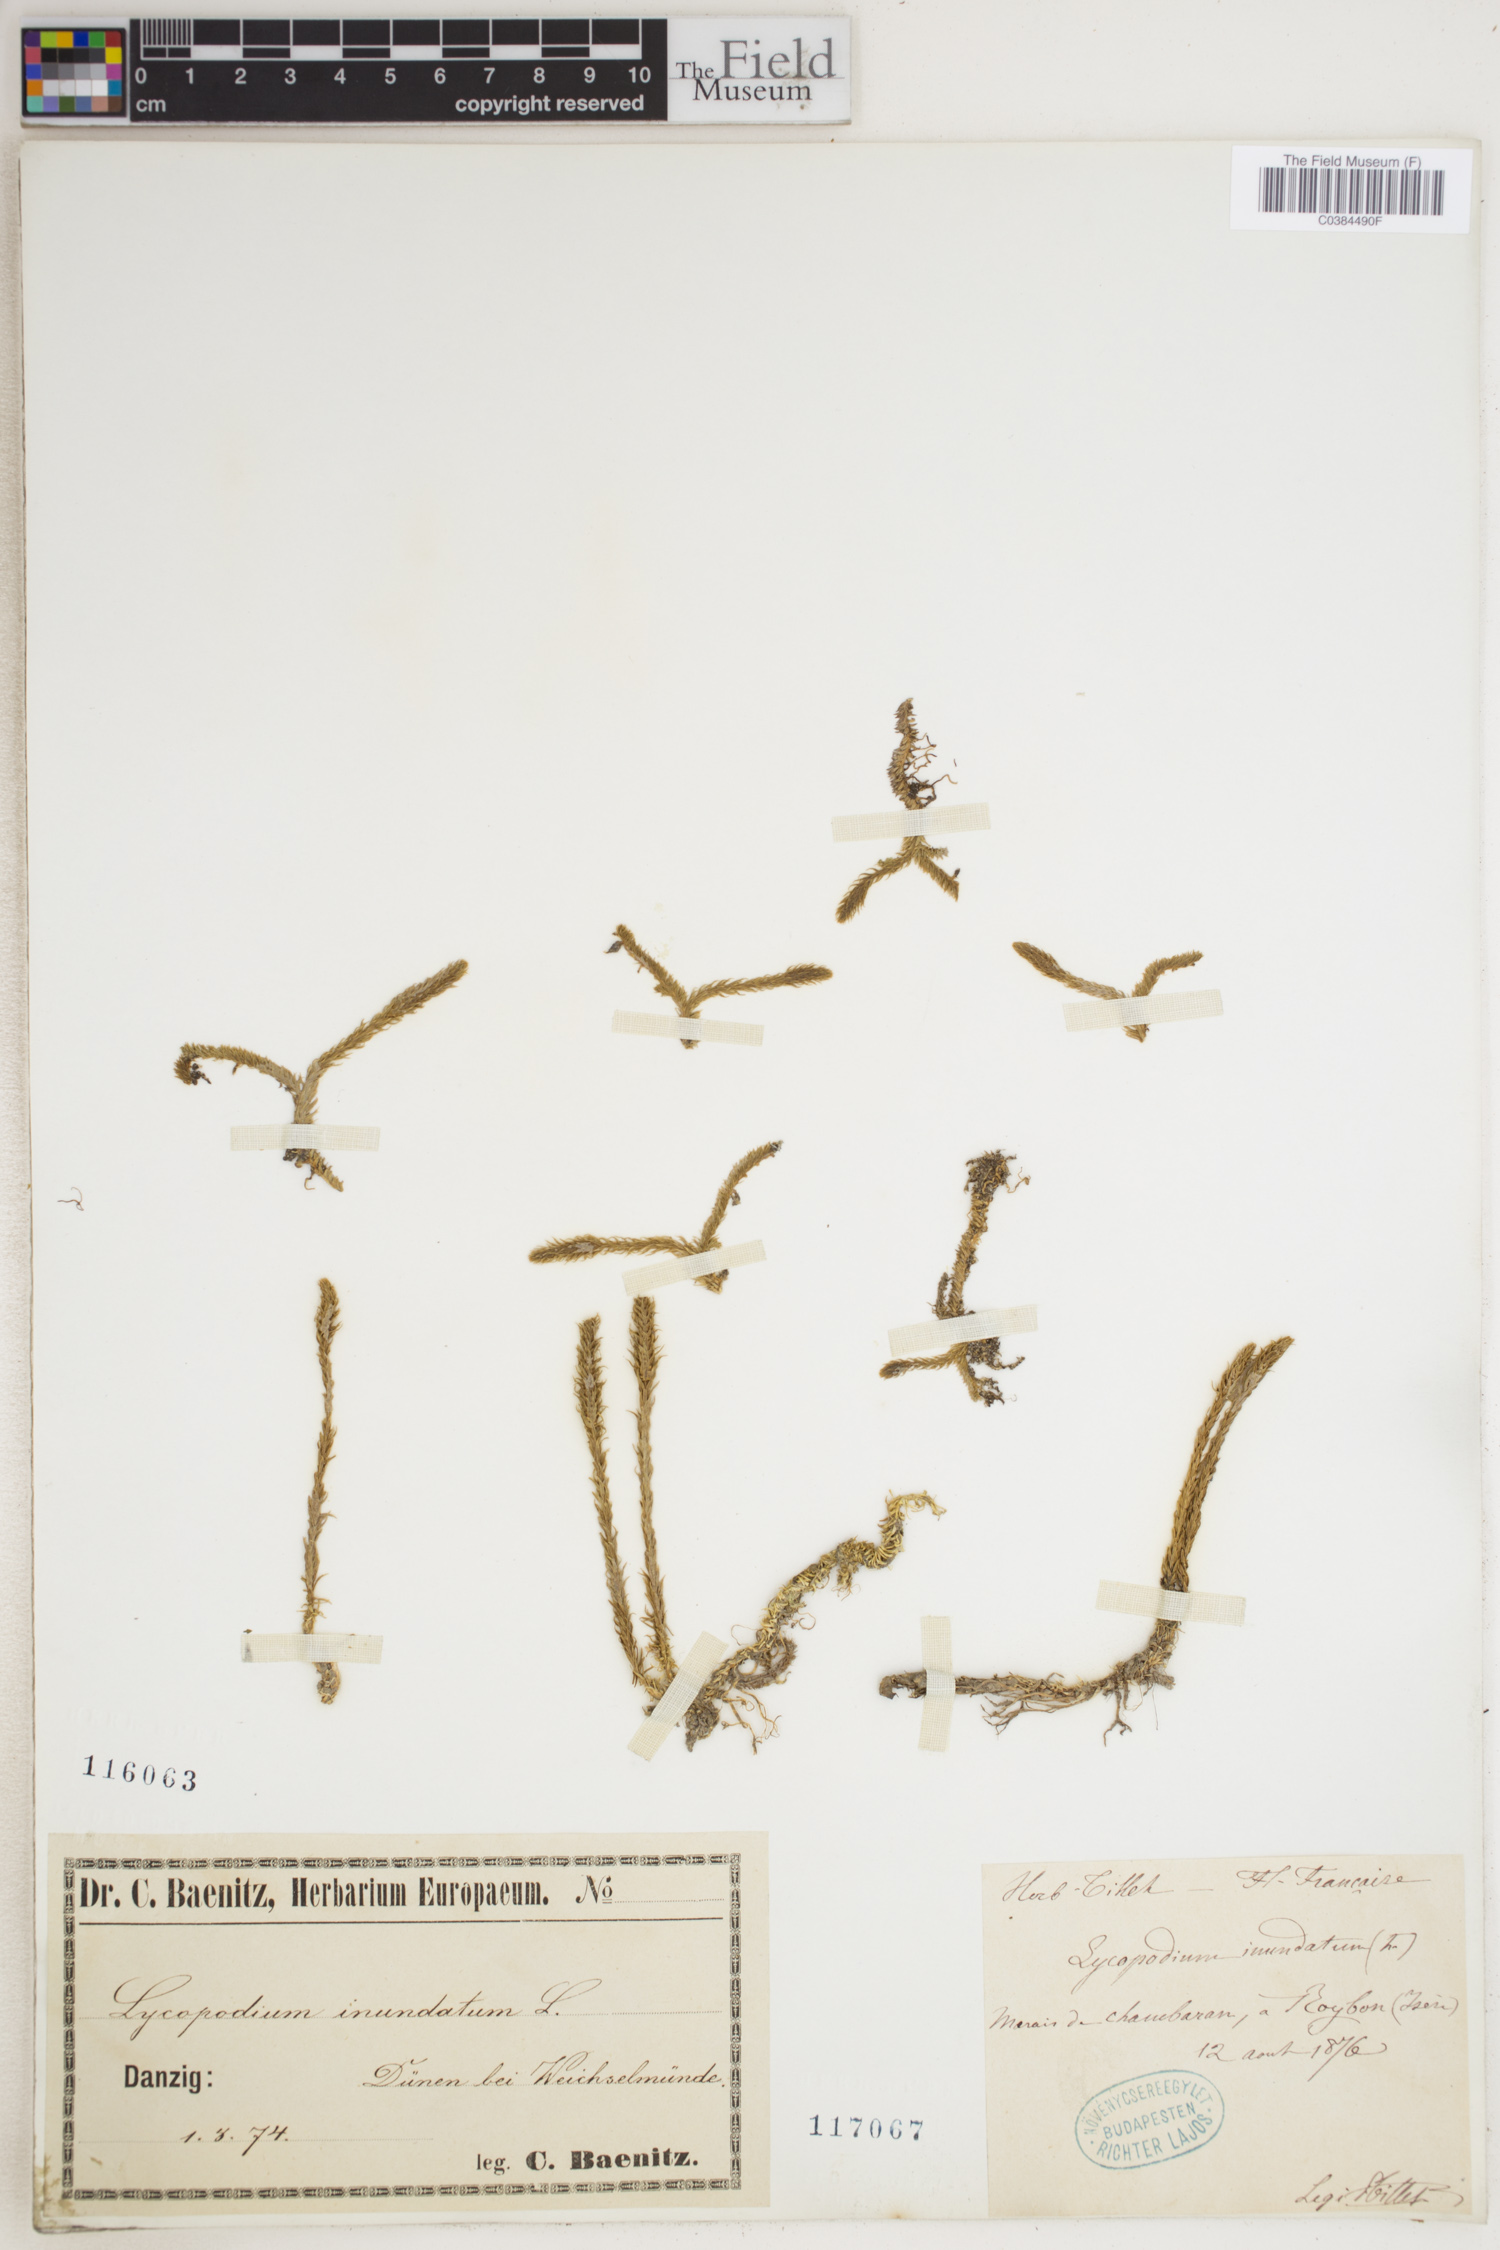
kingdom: Plantae
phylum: Tracheophyta
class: Lycopodiopsida
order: Lycopodiales
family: Lycopodiaceae
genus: Lycopodiella
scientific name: Lycopodiella inundata
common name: Marsh clubmoss
